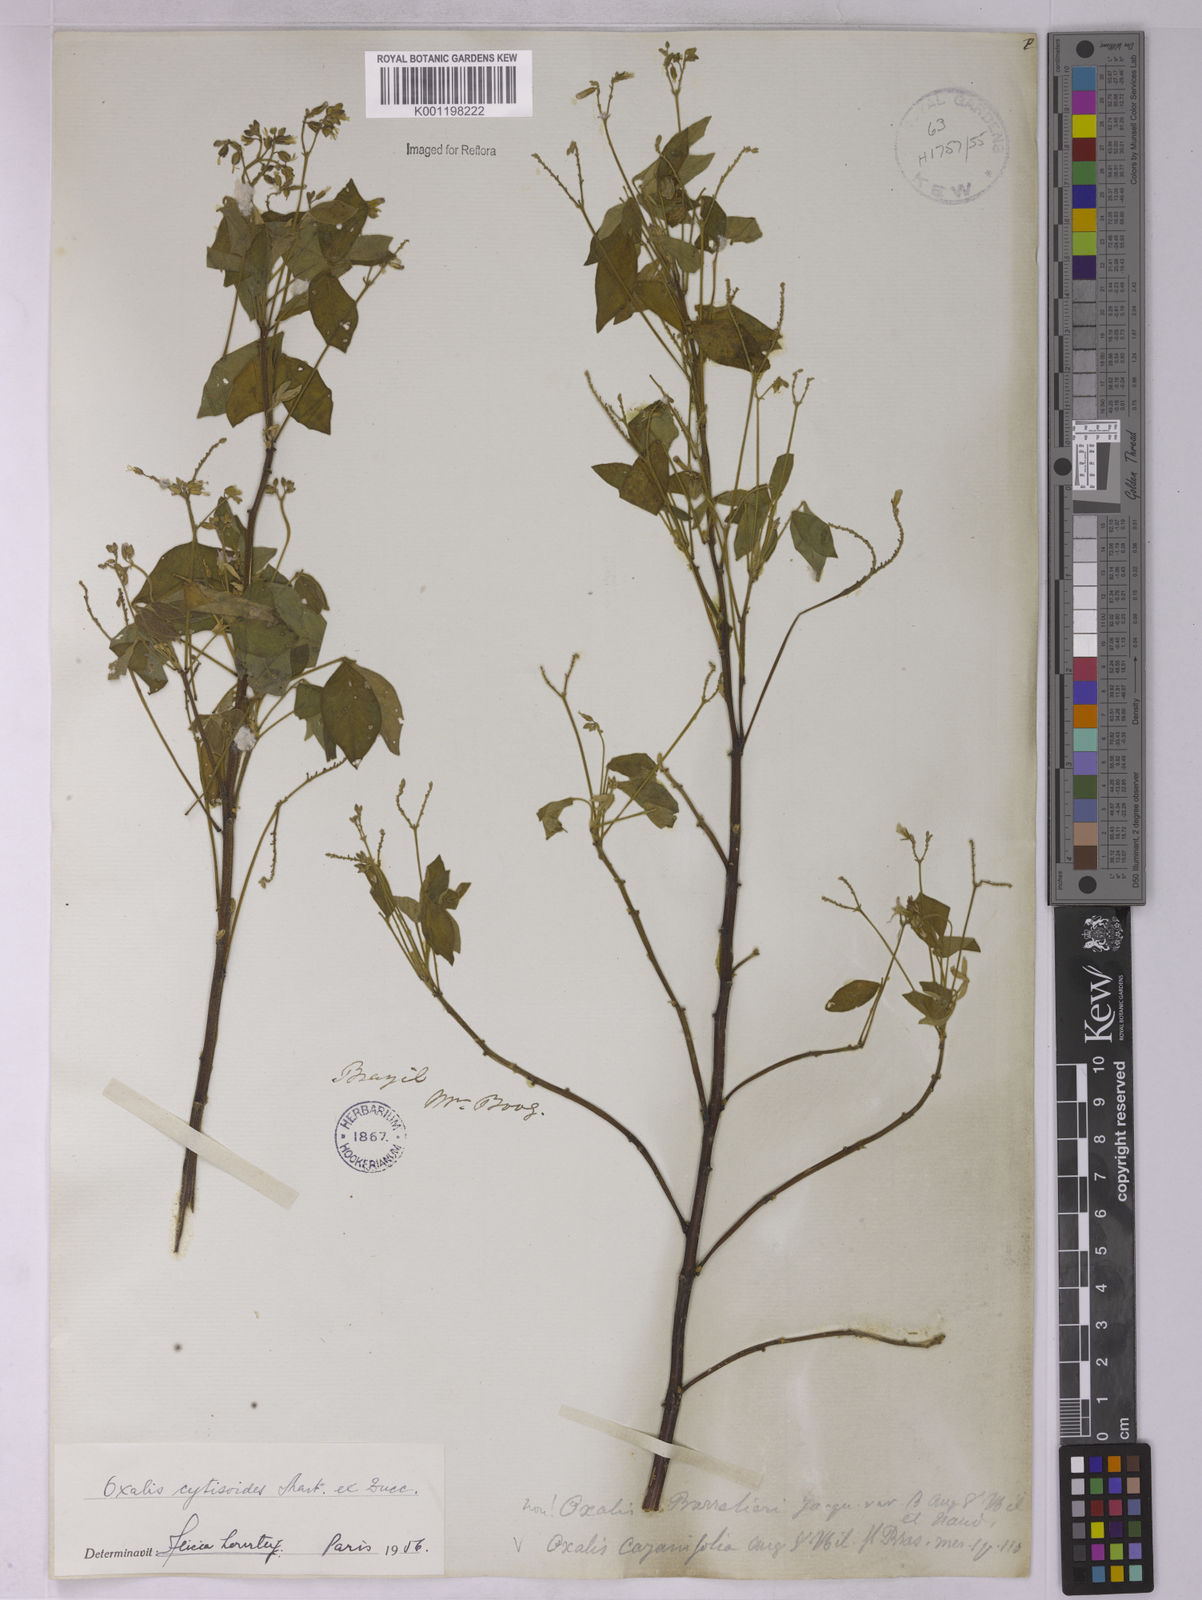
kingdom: Plantae
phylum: Tracheophyta
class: Magnoliopsida
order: Oxalidales
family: Oxalidaceae
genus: Oxalis
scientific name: Oxalis cytisoides
